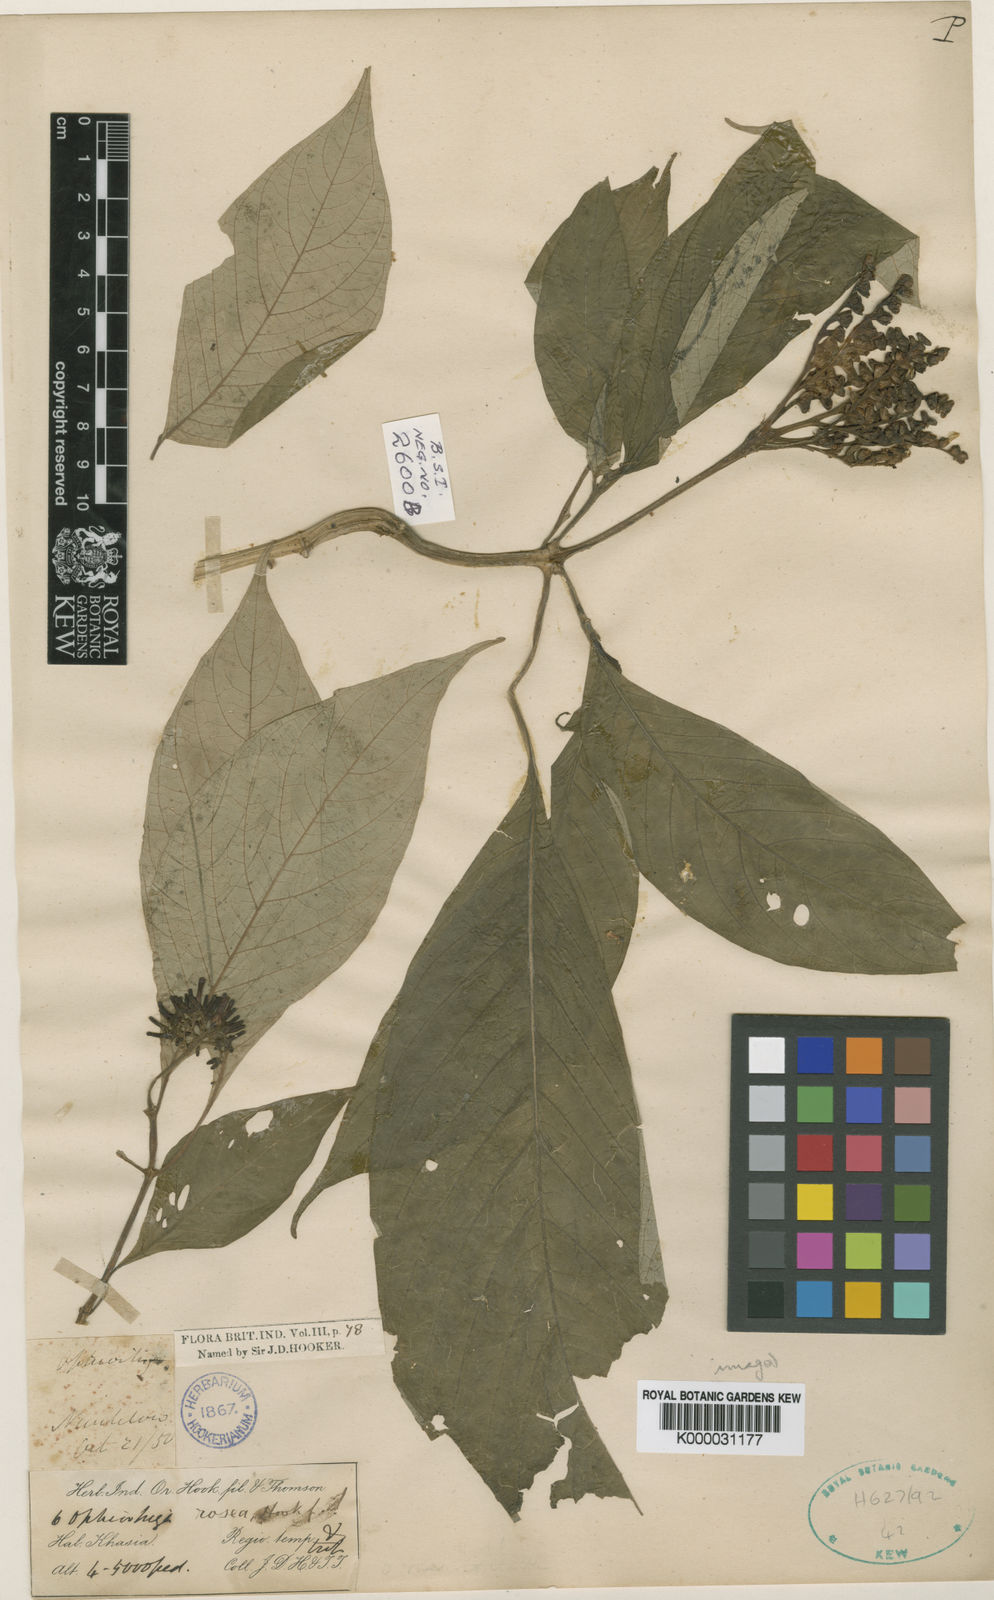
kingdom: Plantae
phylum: Tracheophyta
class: Magnoliopsida
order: Gentianales
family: Rubiaceae
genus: Ophiorrhiza
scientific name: Ophiorrhiza rosea
